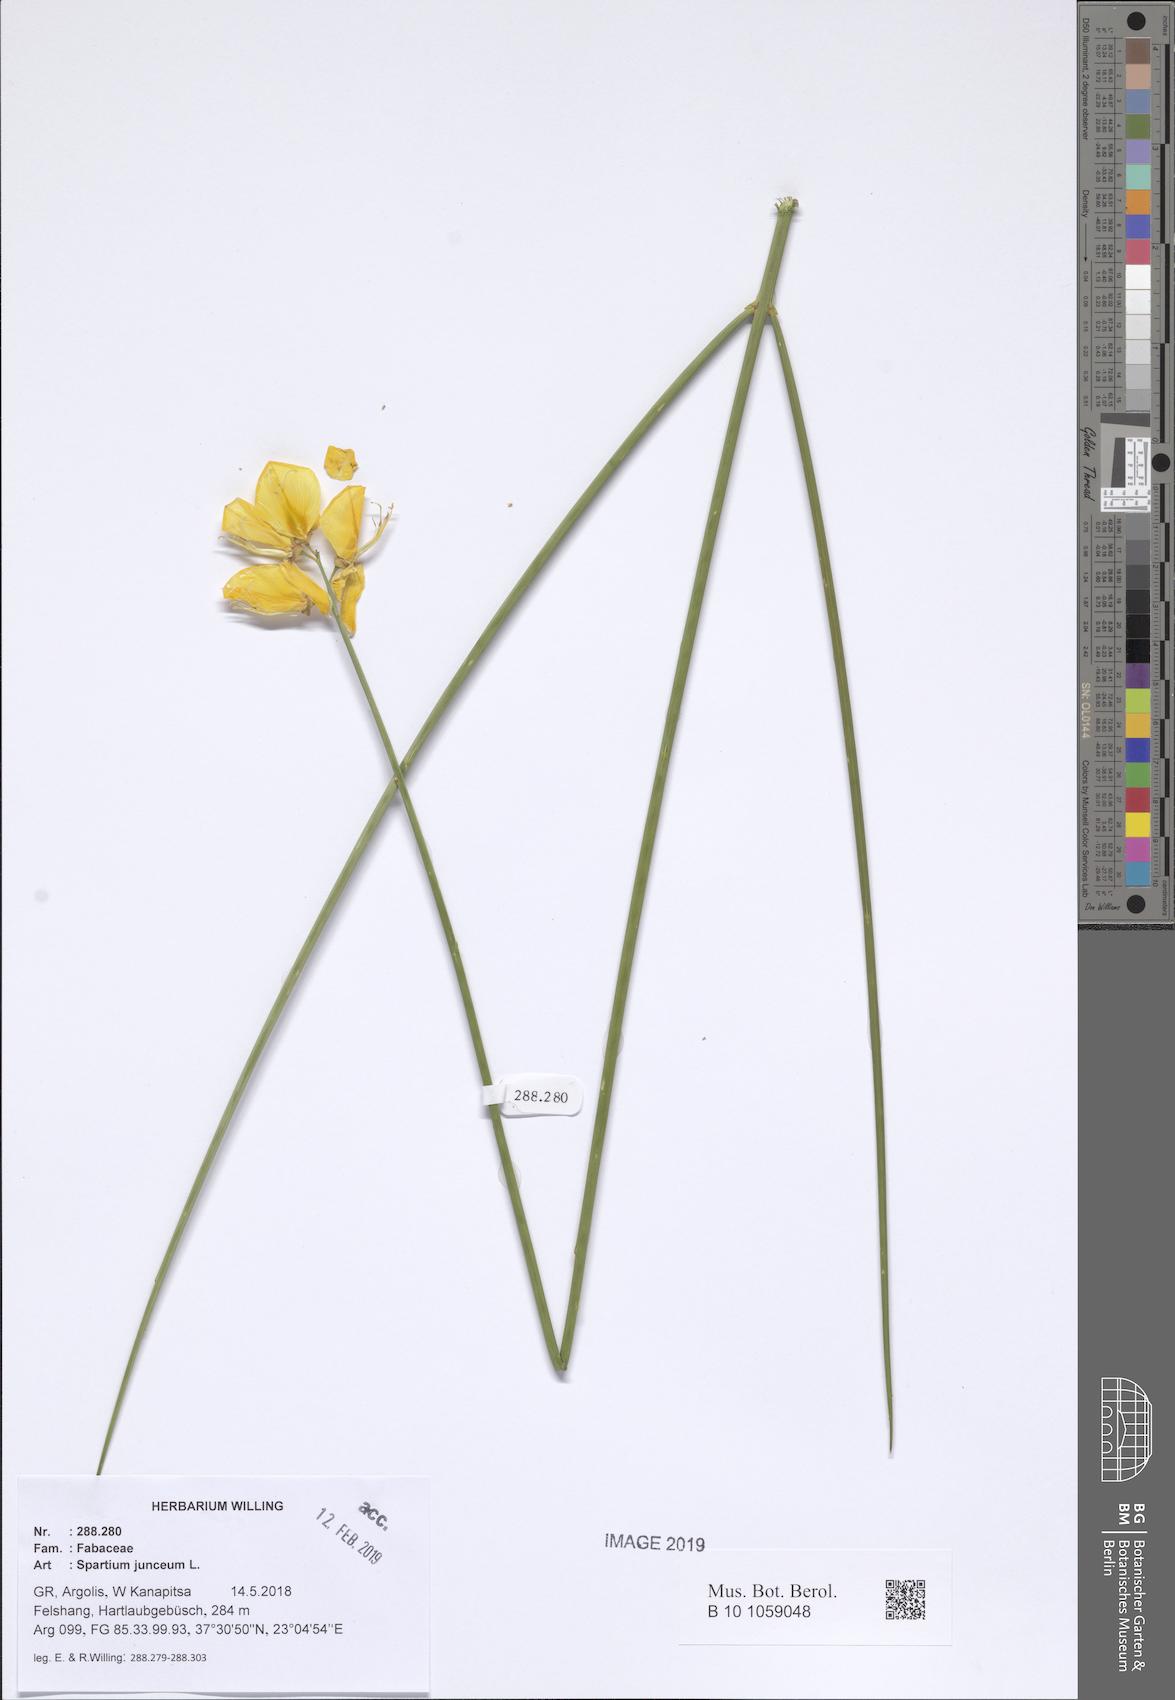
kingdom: Plantae
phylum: Tracheophyta
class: Magnoliopsida
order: Fabales
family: Fabaceae
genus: Spartium
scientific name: Spartium junceum
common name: Spanish broom
